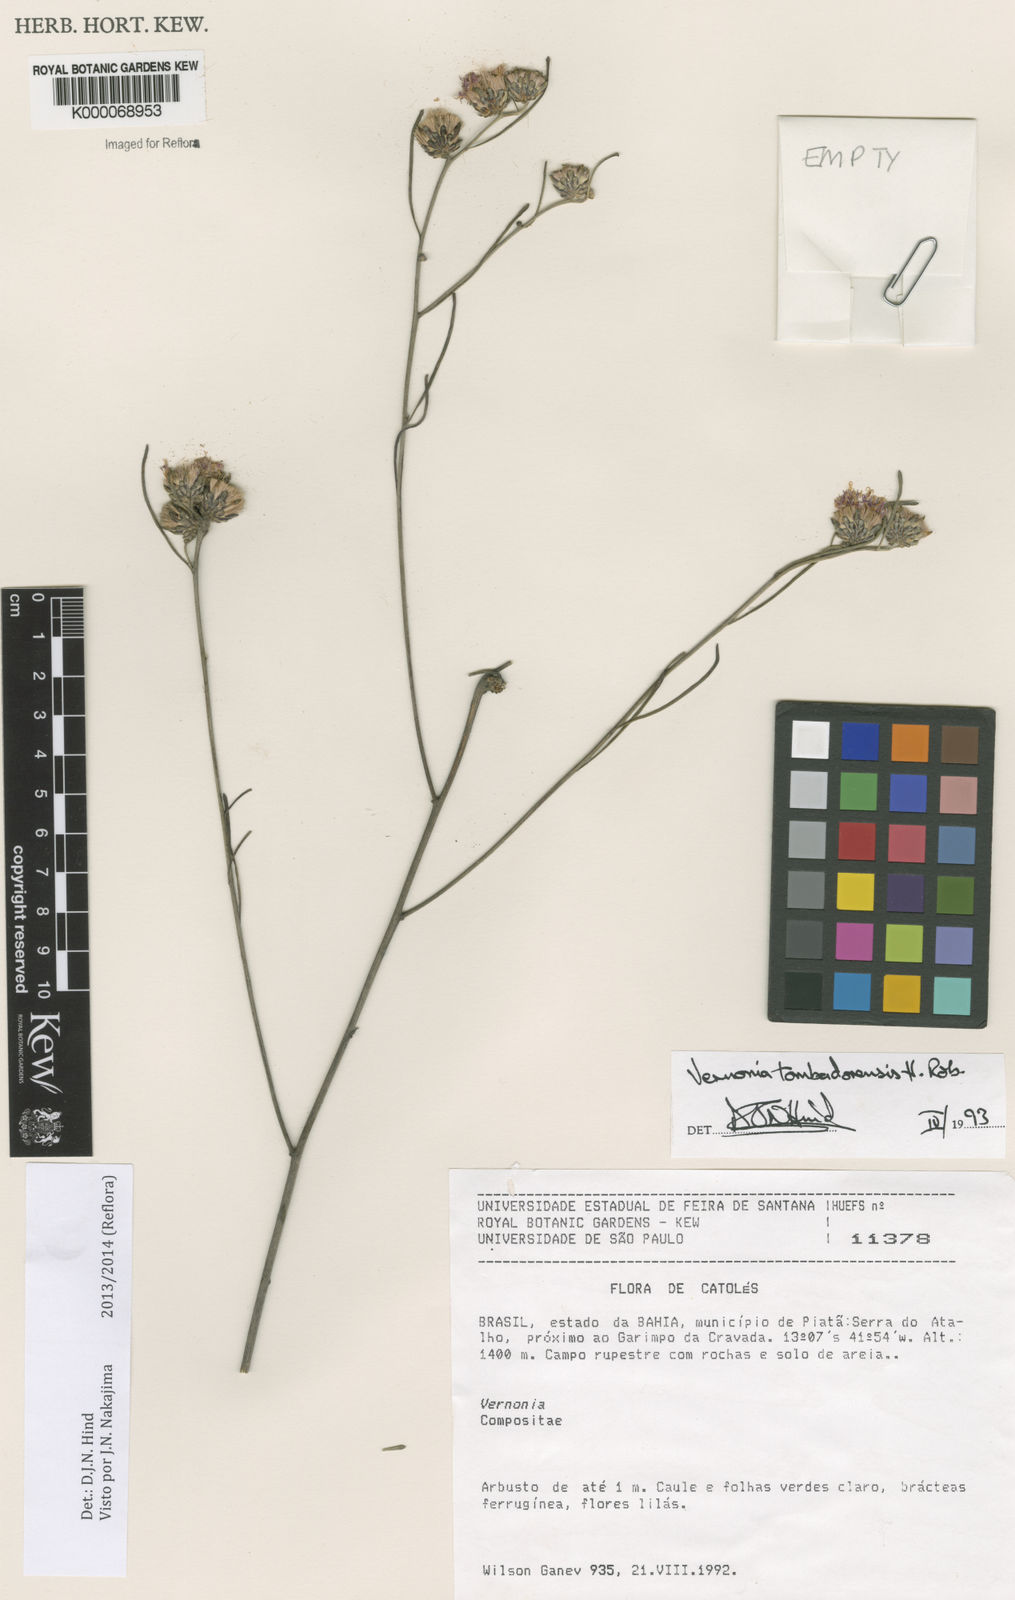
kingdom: Plantae
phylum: Tracheophyta
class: Magnoliopsida
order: Asterales
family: Asteraceae
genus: Lepidaploa
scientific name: Lepidaploa tombadorensis
